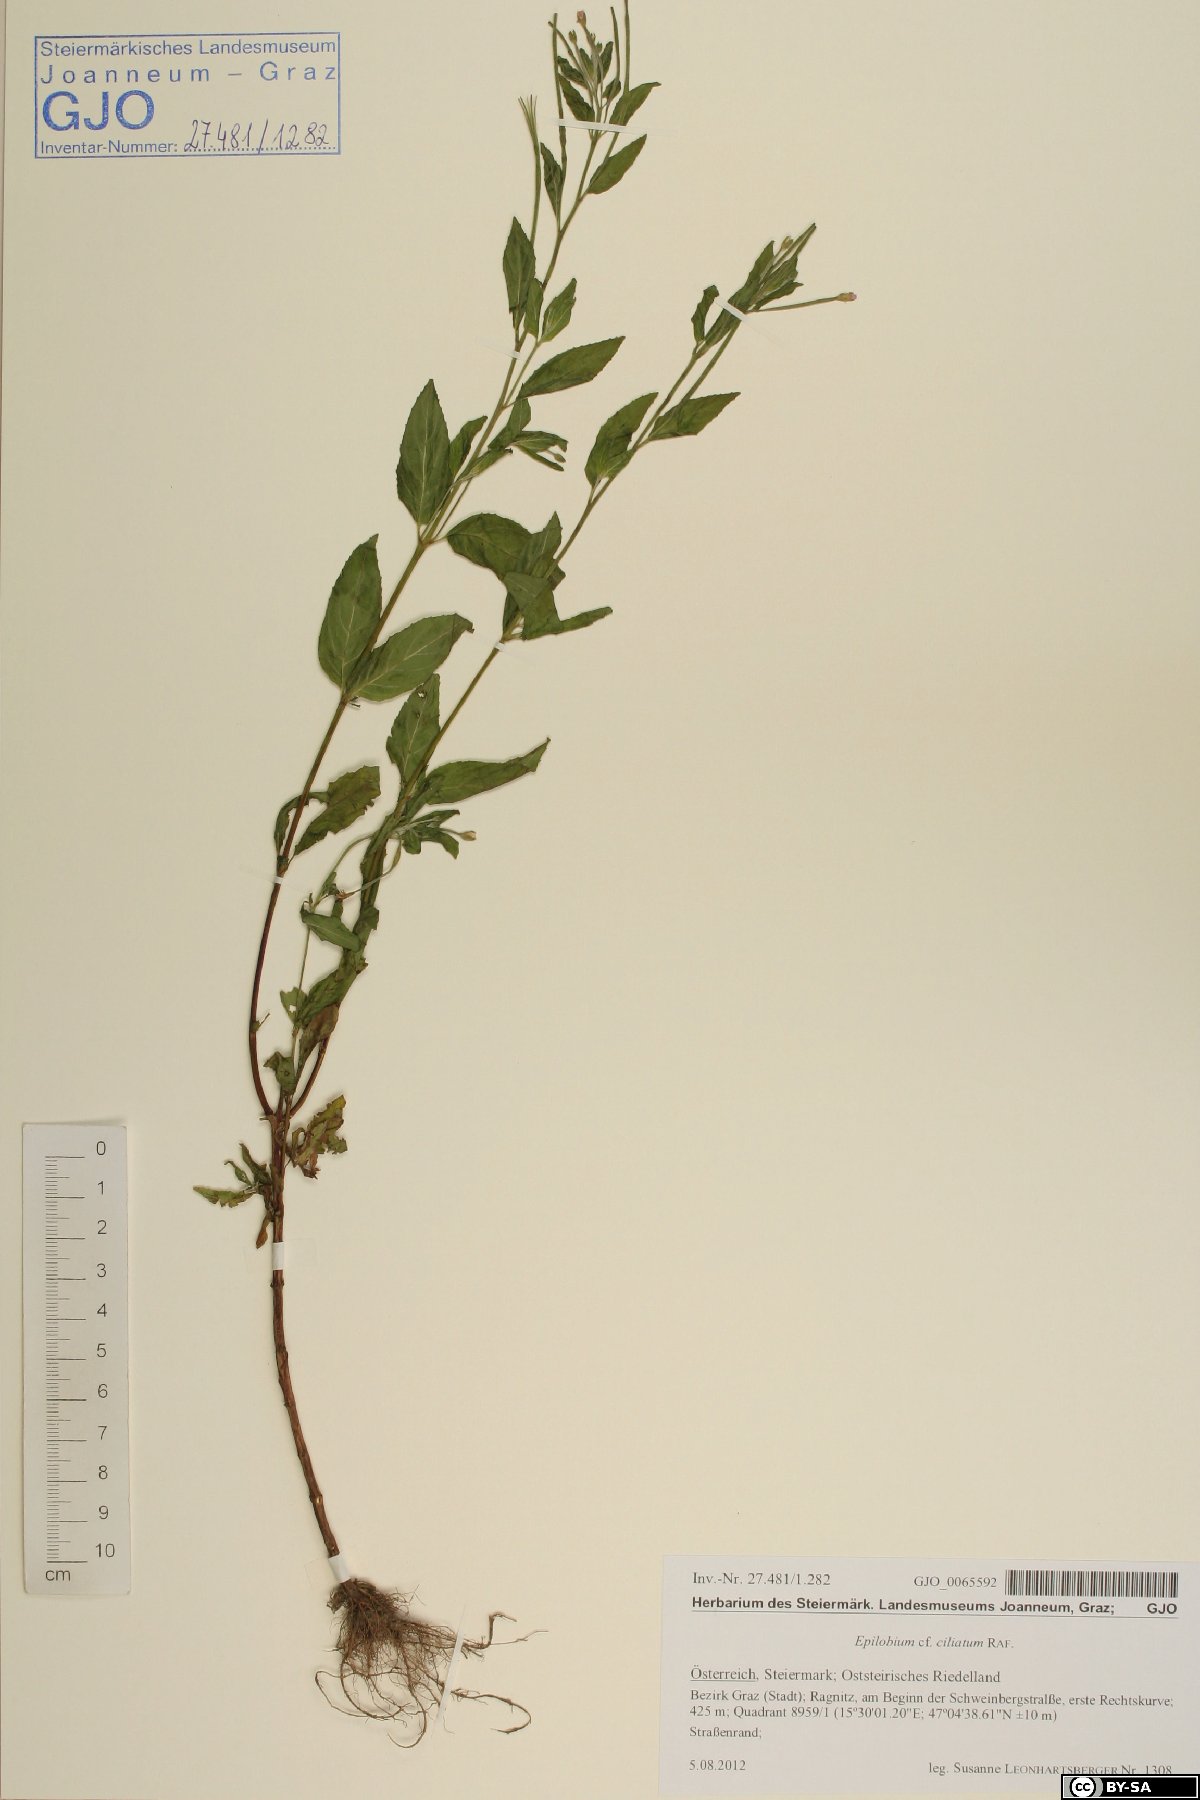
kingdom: Plantae
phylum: Tracheophyta
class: Magnoliopsida
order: Myrtales
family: Onagraceae
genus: Epilobium
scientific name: Epilobium ciliatum
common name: American willowherb
